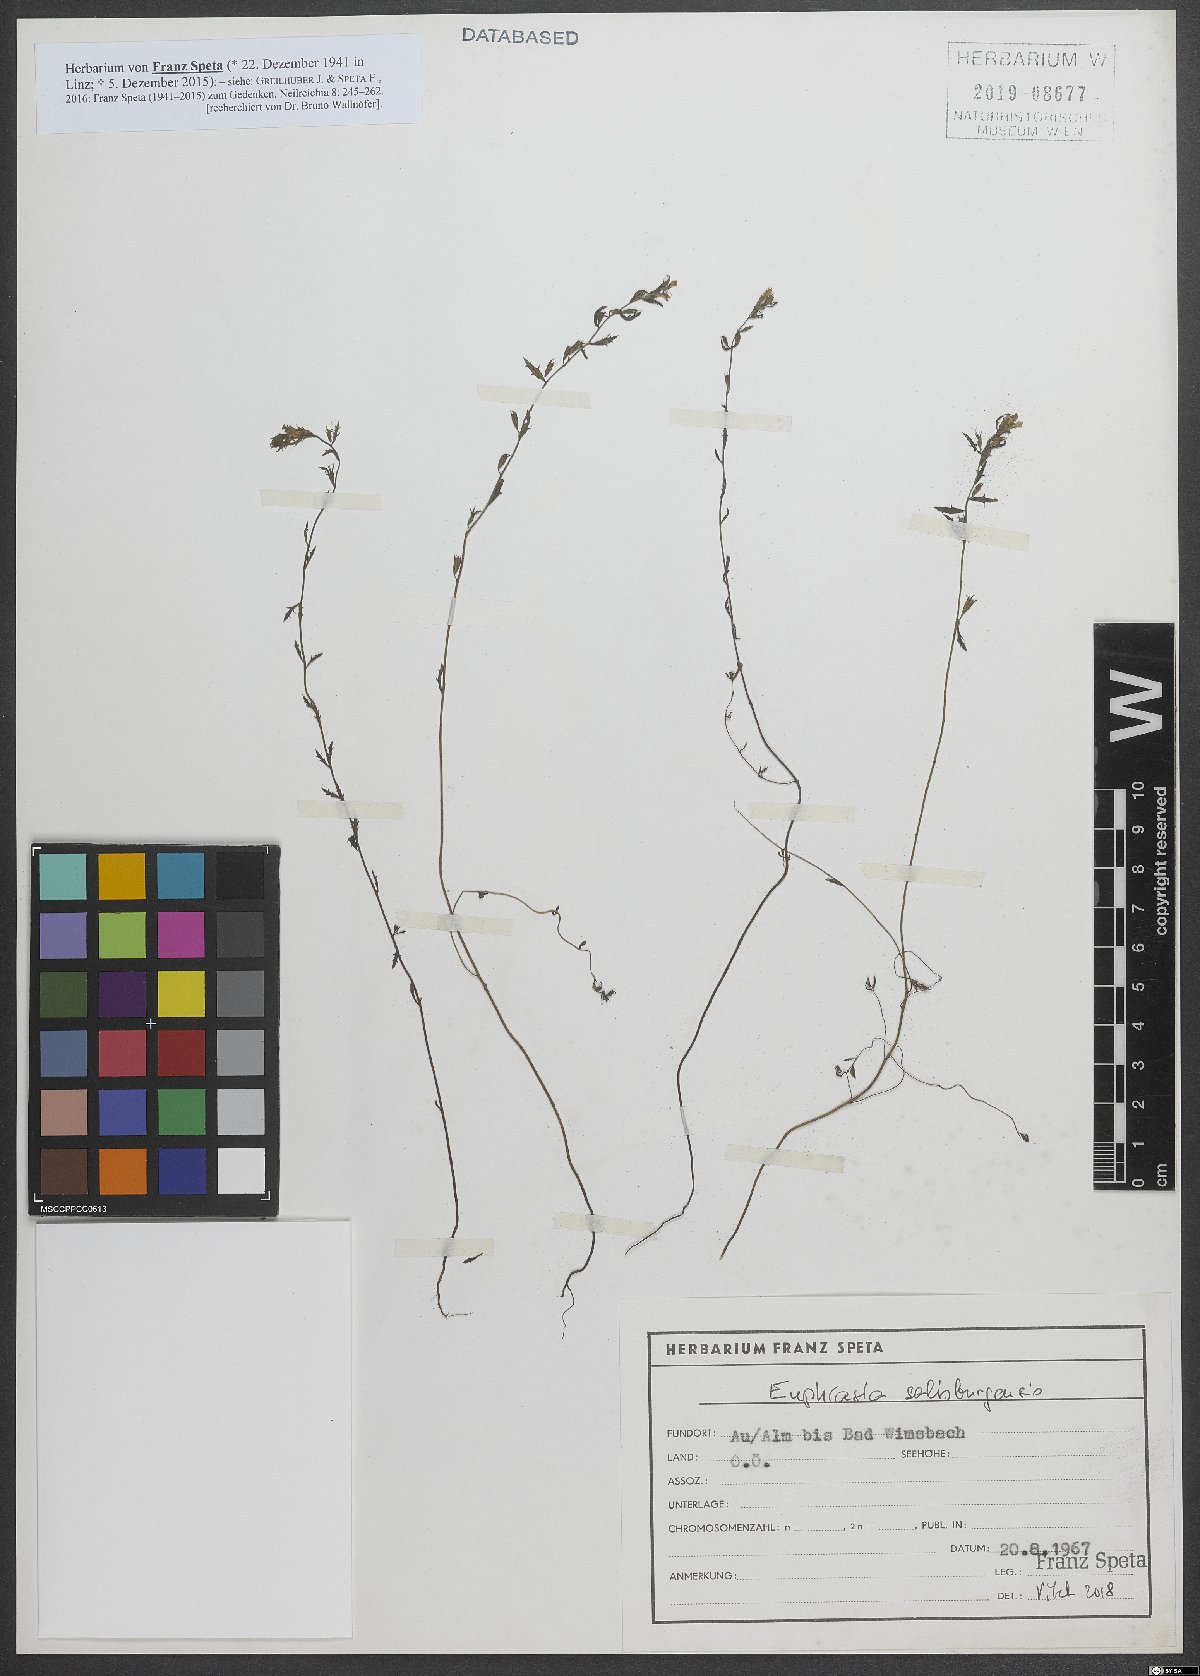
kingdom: Plantae
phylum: Tracheophyta
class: Magnoliopsida
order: Lamiales
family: Orobanchaceae
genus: Euphrasia
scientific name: Euphrasia salisburgensis
